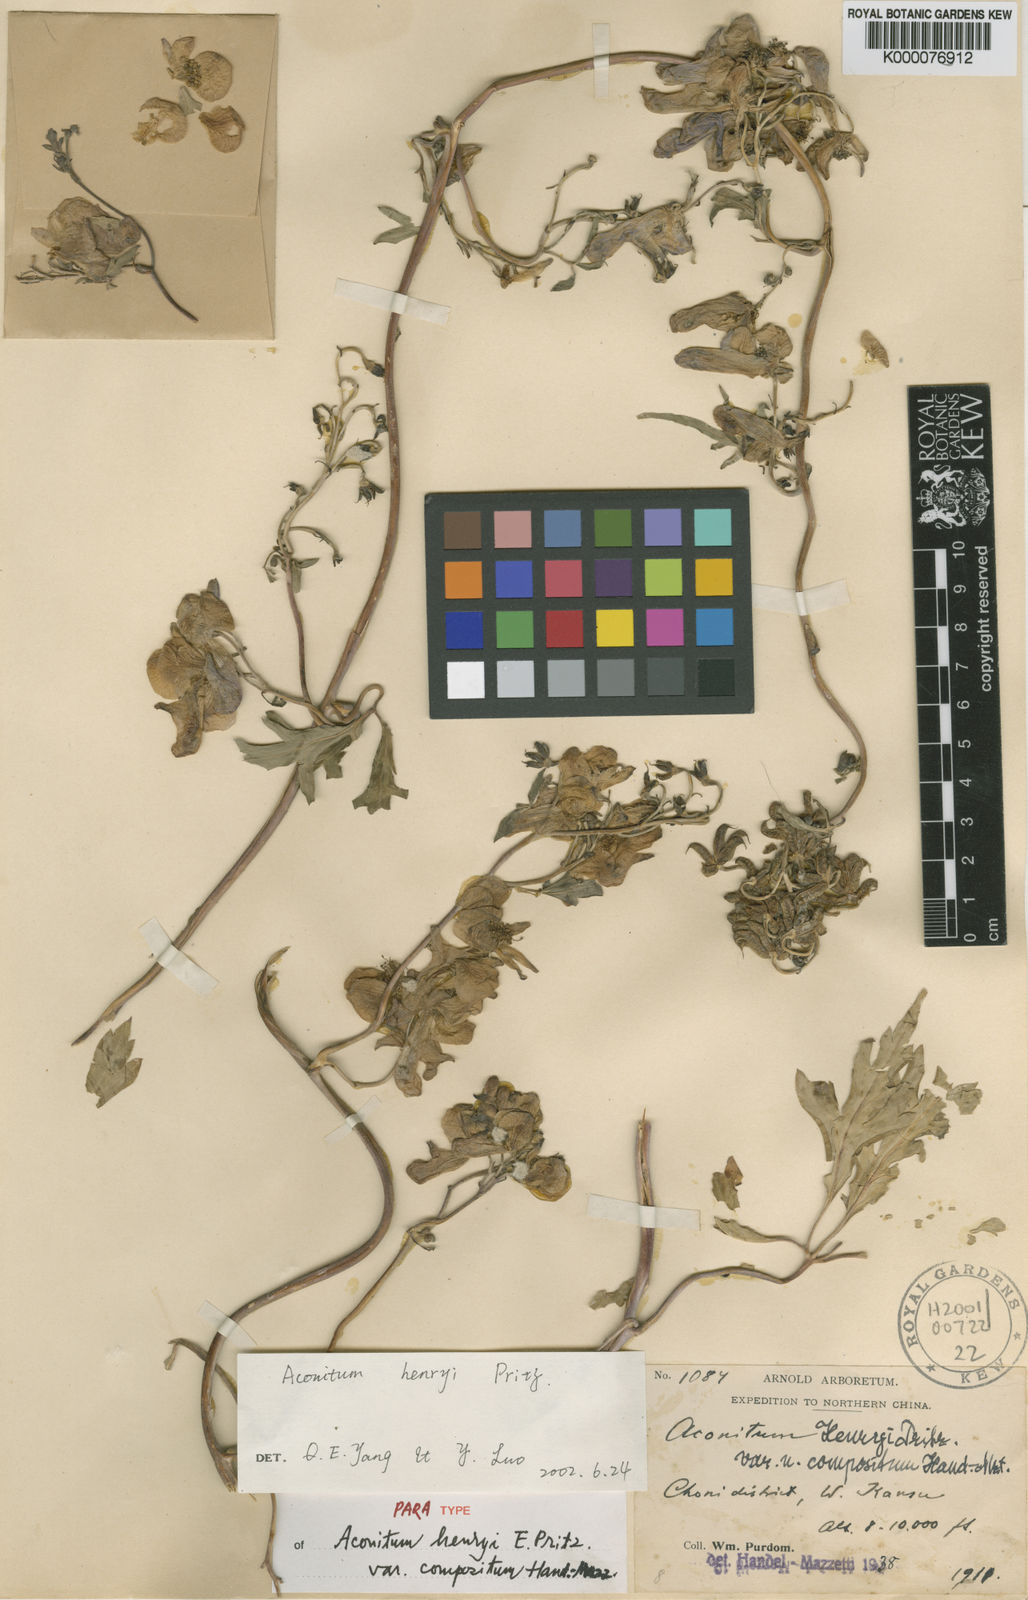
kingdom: Plantae
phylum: Tracheophyta
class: Magnoliopsida
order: Ranunculales
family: Ranunculaceae
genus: Aconitum
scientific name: Aconitum
